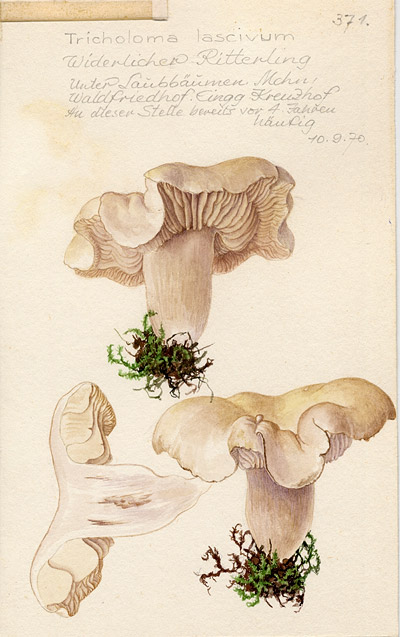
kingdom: Fungi
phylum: Basidiomycota
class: Agaricomycetes
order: Agaricales
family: Tricholomataceae
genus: Tricholoma
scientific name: Tricholoma lascivum
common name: Aromatic knight
